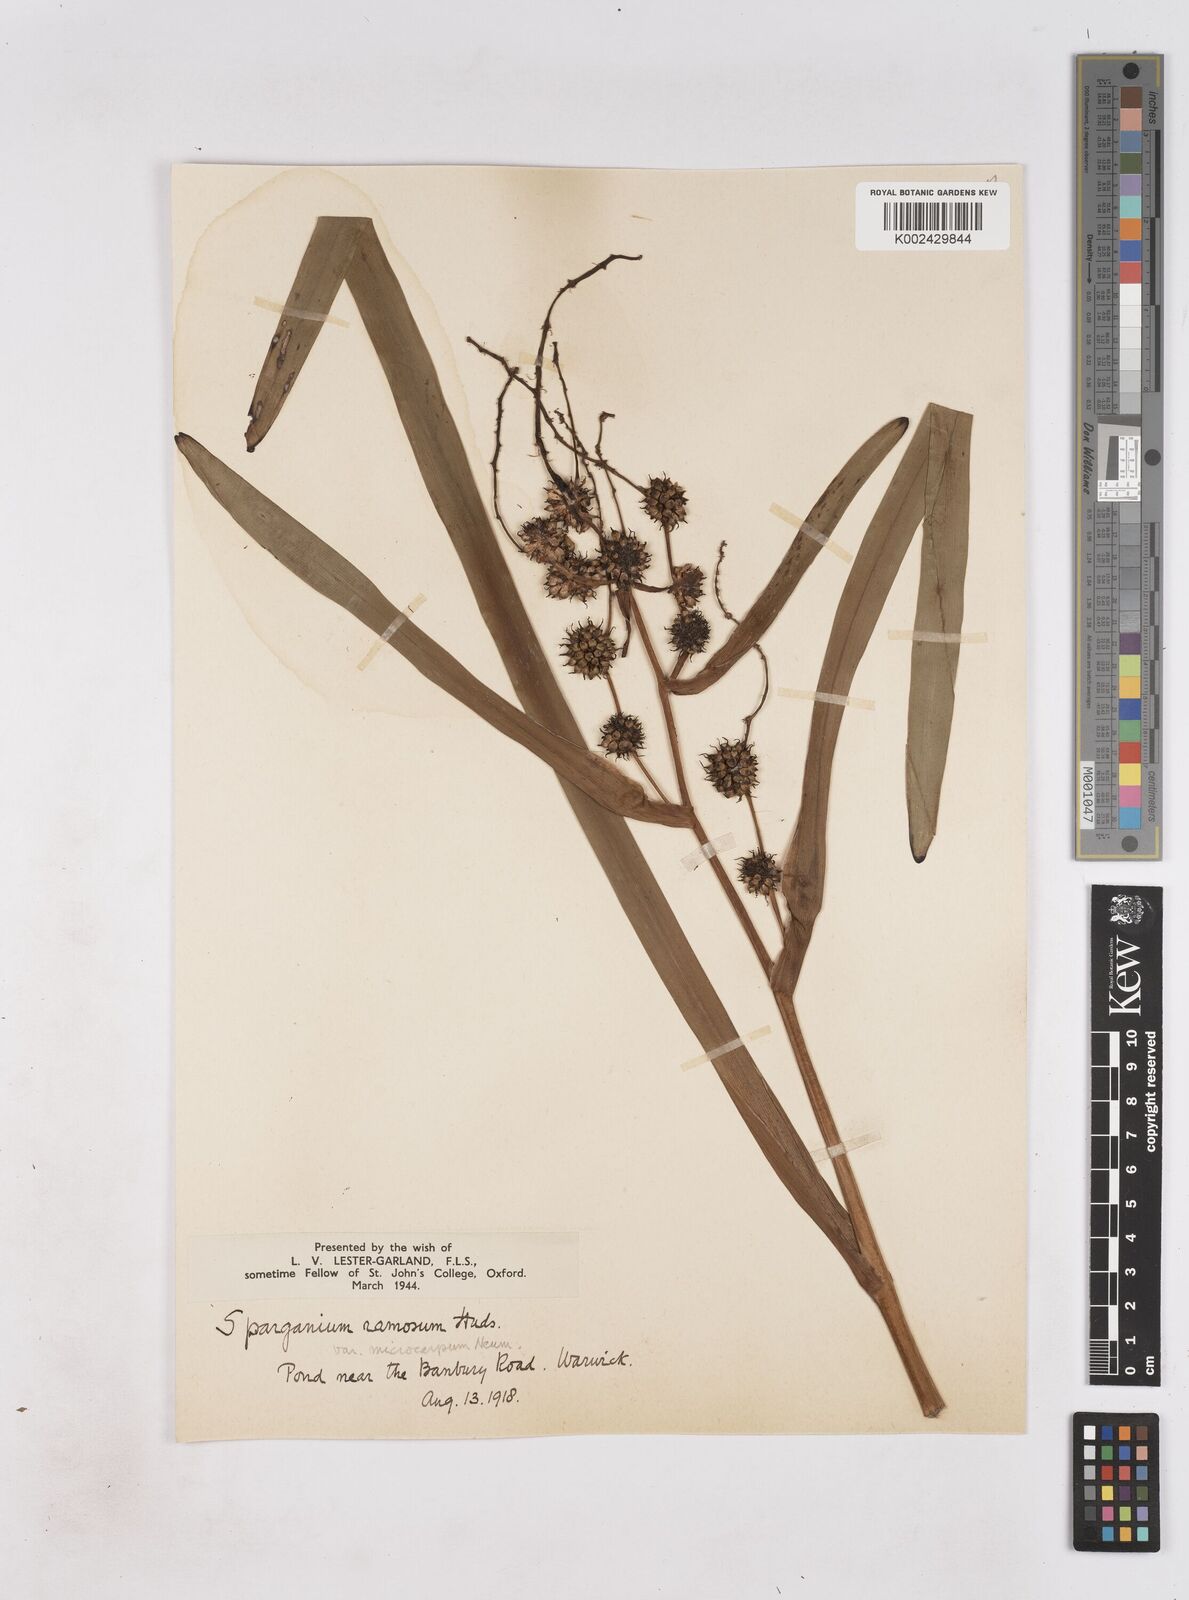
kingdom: Plantae
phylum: Tracheophyta
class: Liliopsida
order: Poales
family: Typhaceae
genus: Sparganium
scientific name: Sparganium erectum
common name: Branched bur-reed
